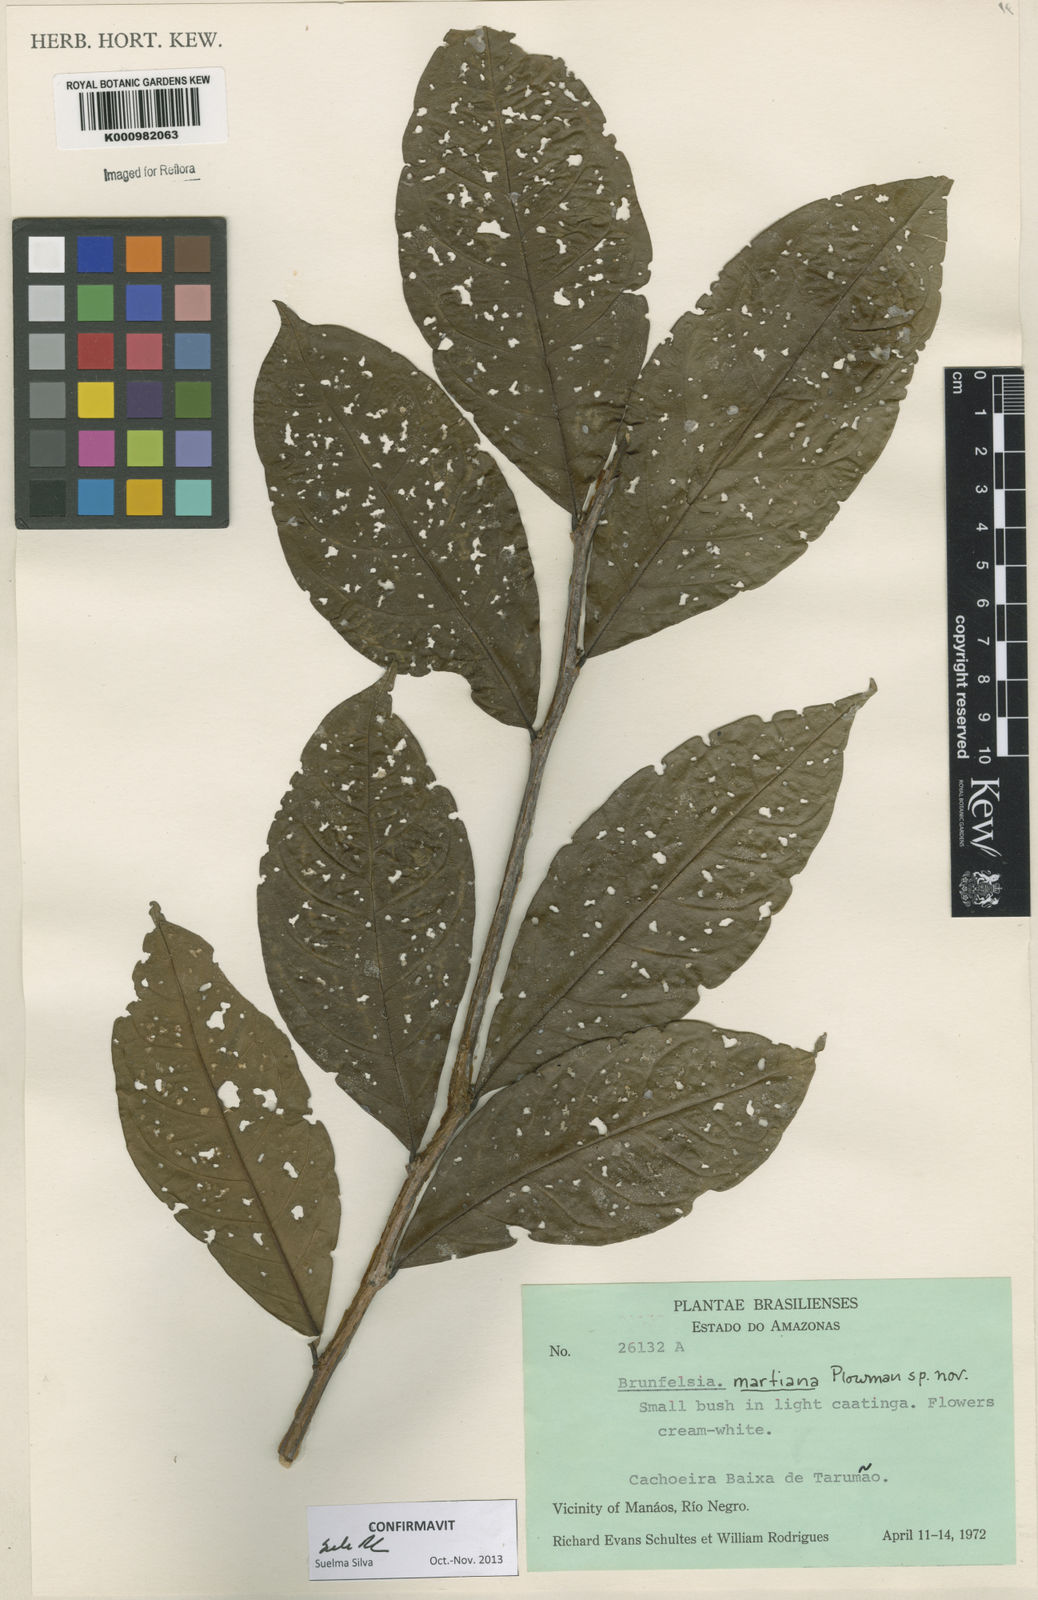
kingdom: Plantae
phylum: Tracheophyta
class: Magnoliopsida
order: Solanales
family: Solanaceae
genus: Brunfelsia
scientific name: Brunfelsia martiana
